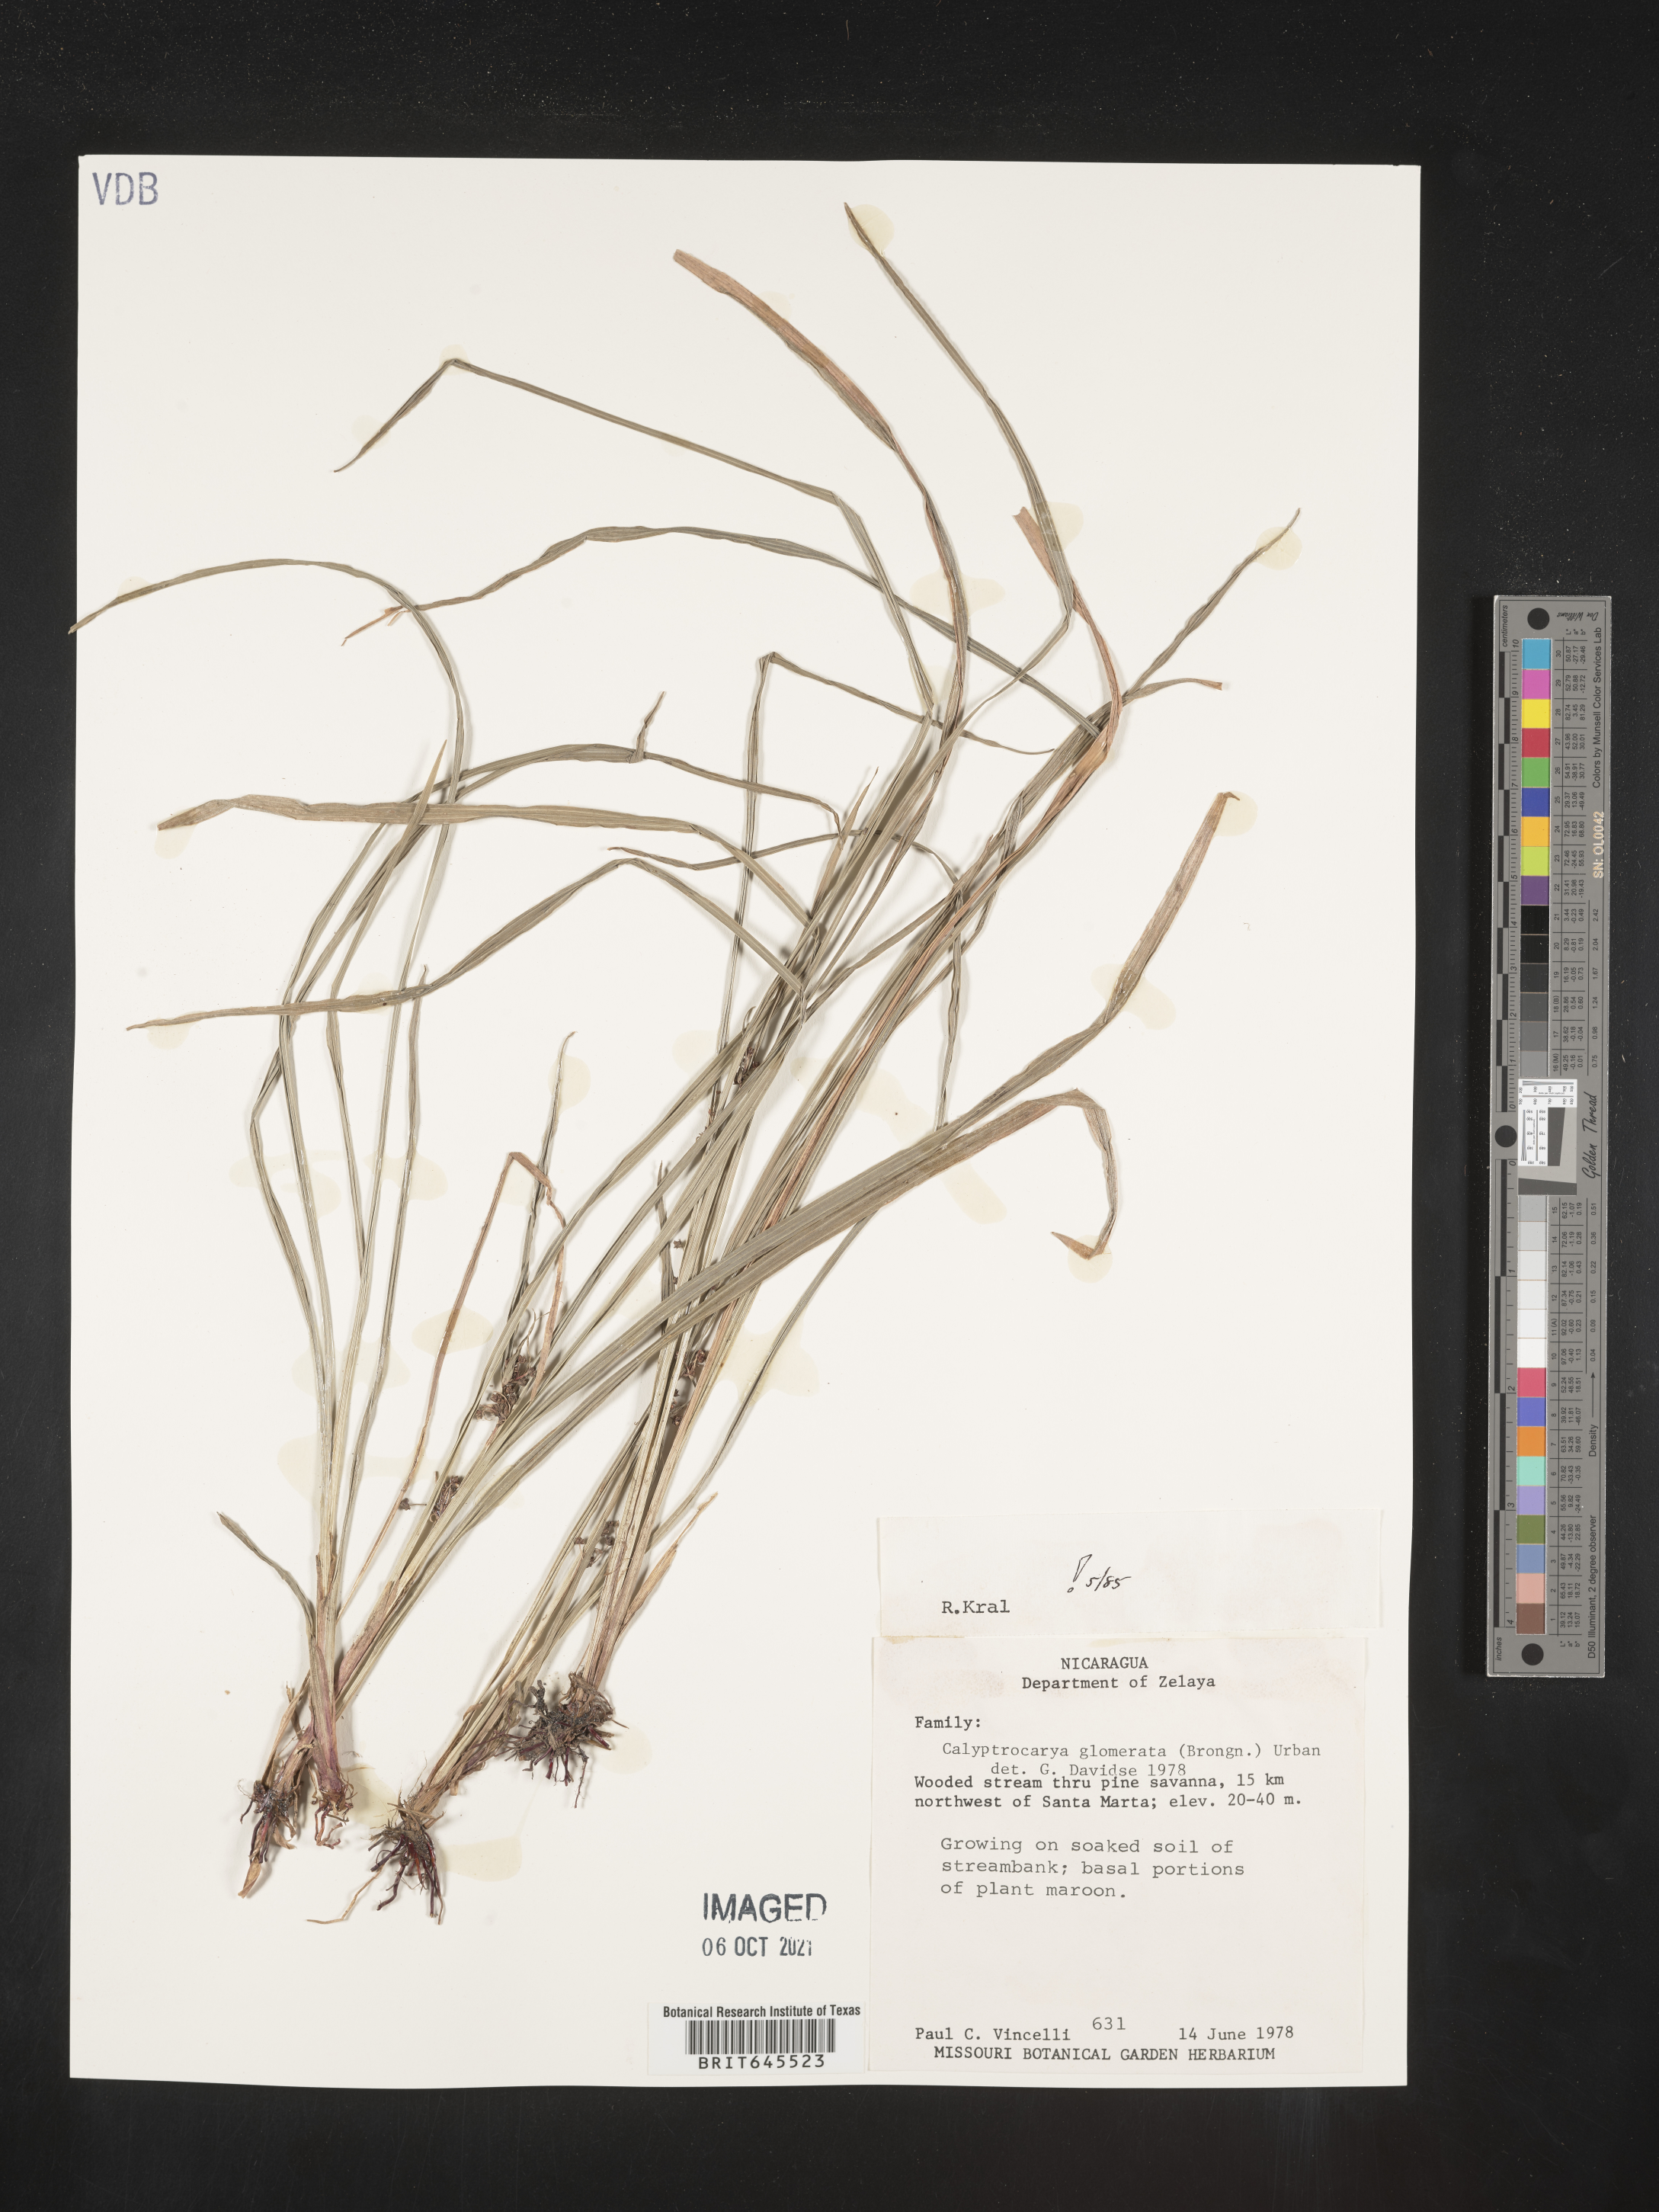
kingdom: Plantae
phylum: Tracheophyta
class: Liliopsida
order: Poales
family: Cyperaceae
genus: Calyptrocarya
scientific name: Calyptrocarya glomerulata
